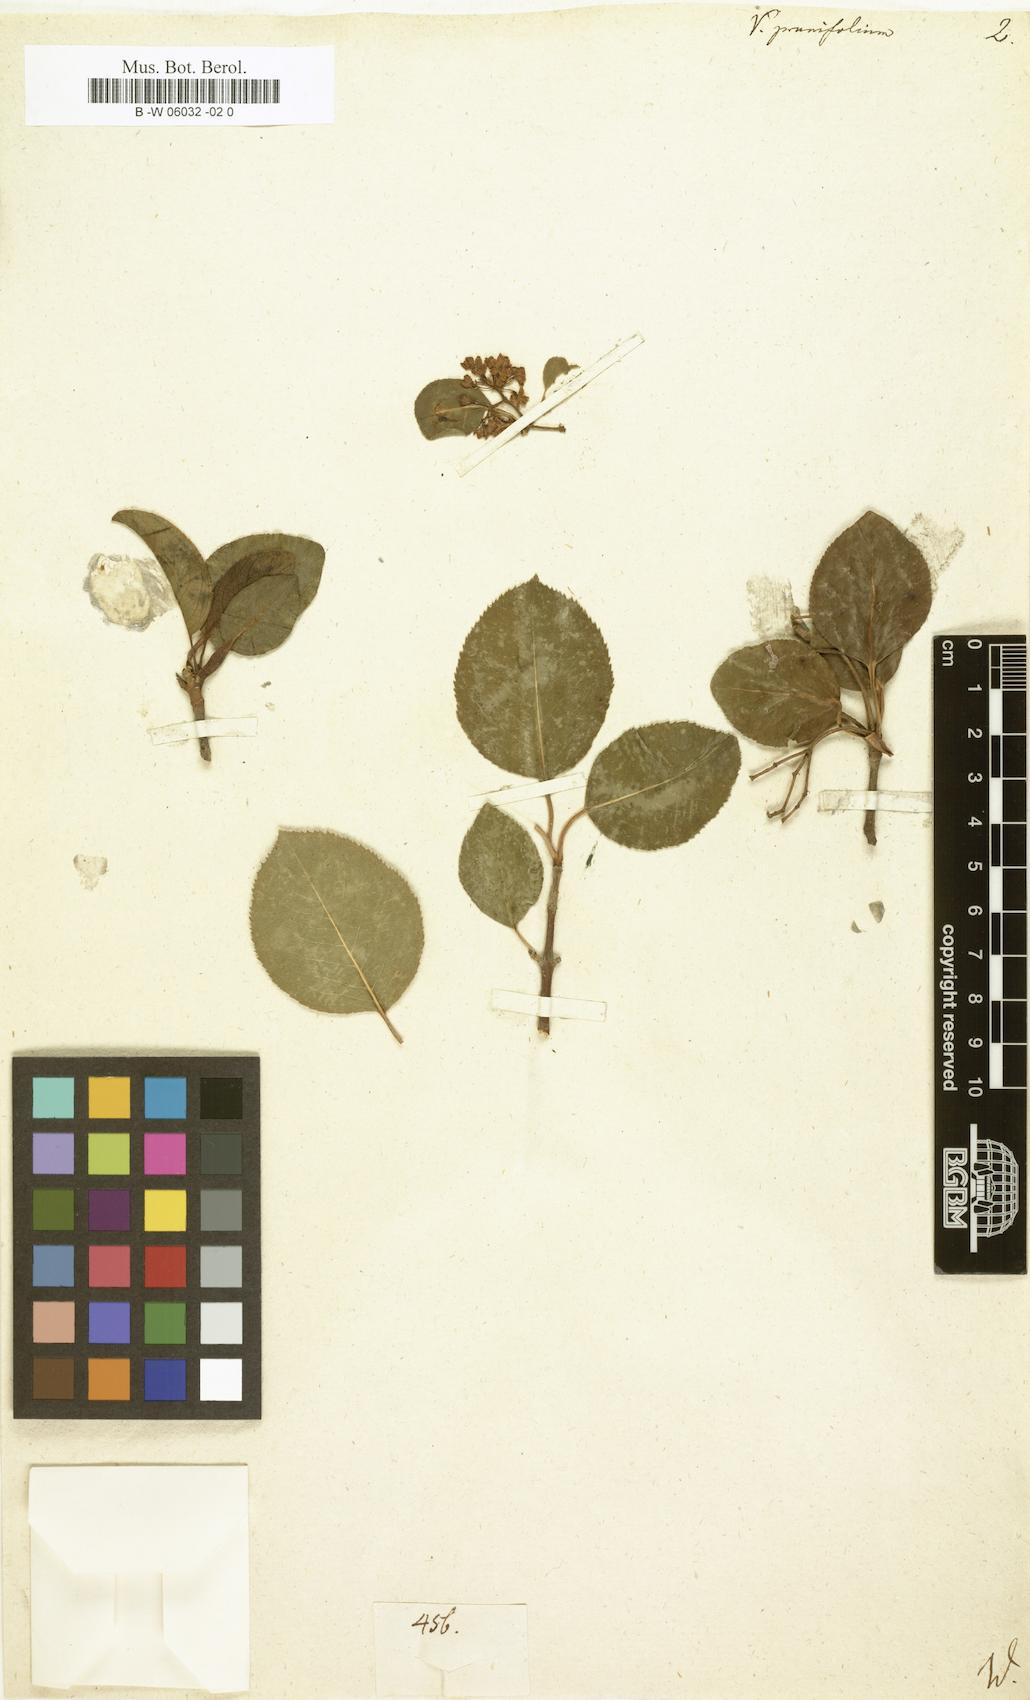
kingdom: Plantae
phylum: Tracheophyta
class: Magnoliopsida
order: Dipsacales
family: Viburnaceae
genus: Viburnum
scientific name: Viburnum prunifolium
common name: Black haw
